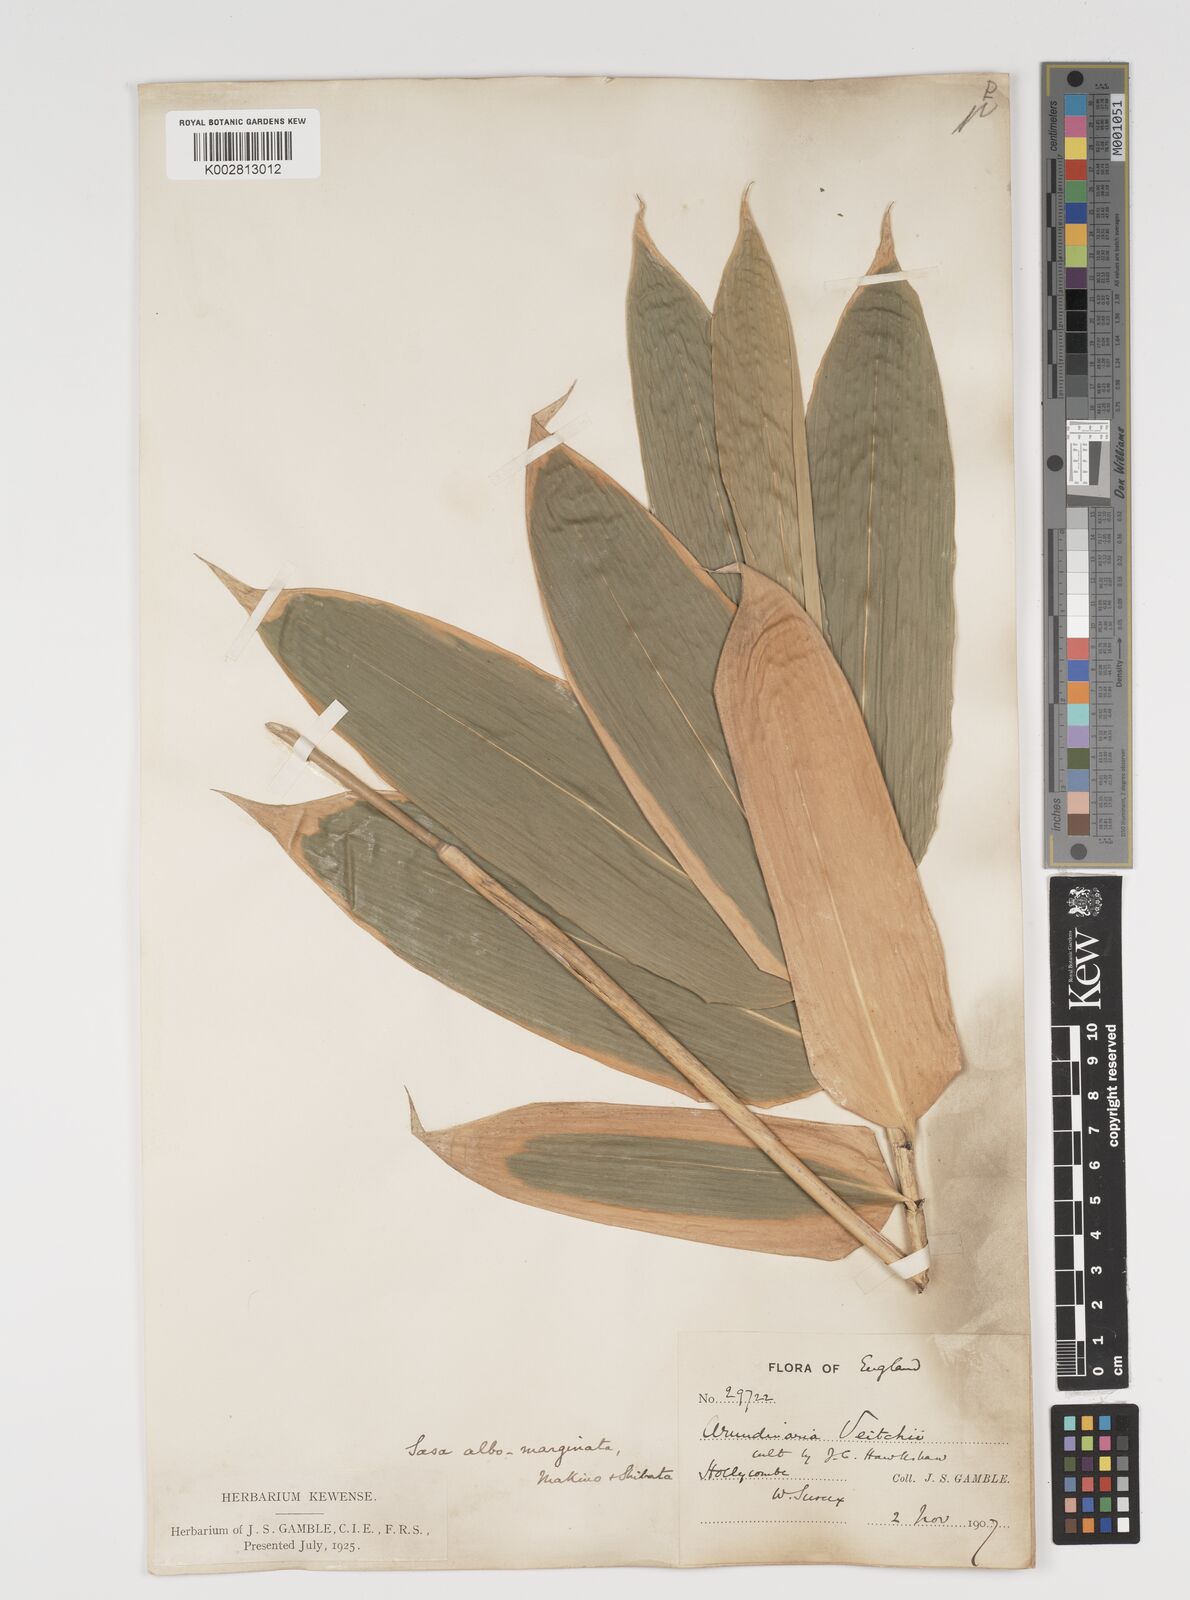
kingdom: Plantae
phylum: Tracheophyta
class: Liliopsida
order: Poales
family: Poaceae
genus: Sasa
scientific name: Sasa veitchii
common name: Veitch's bamboo
